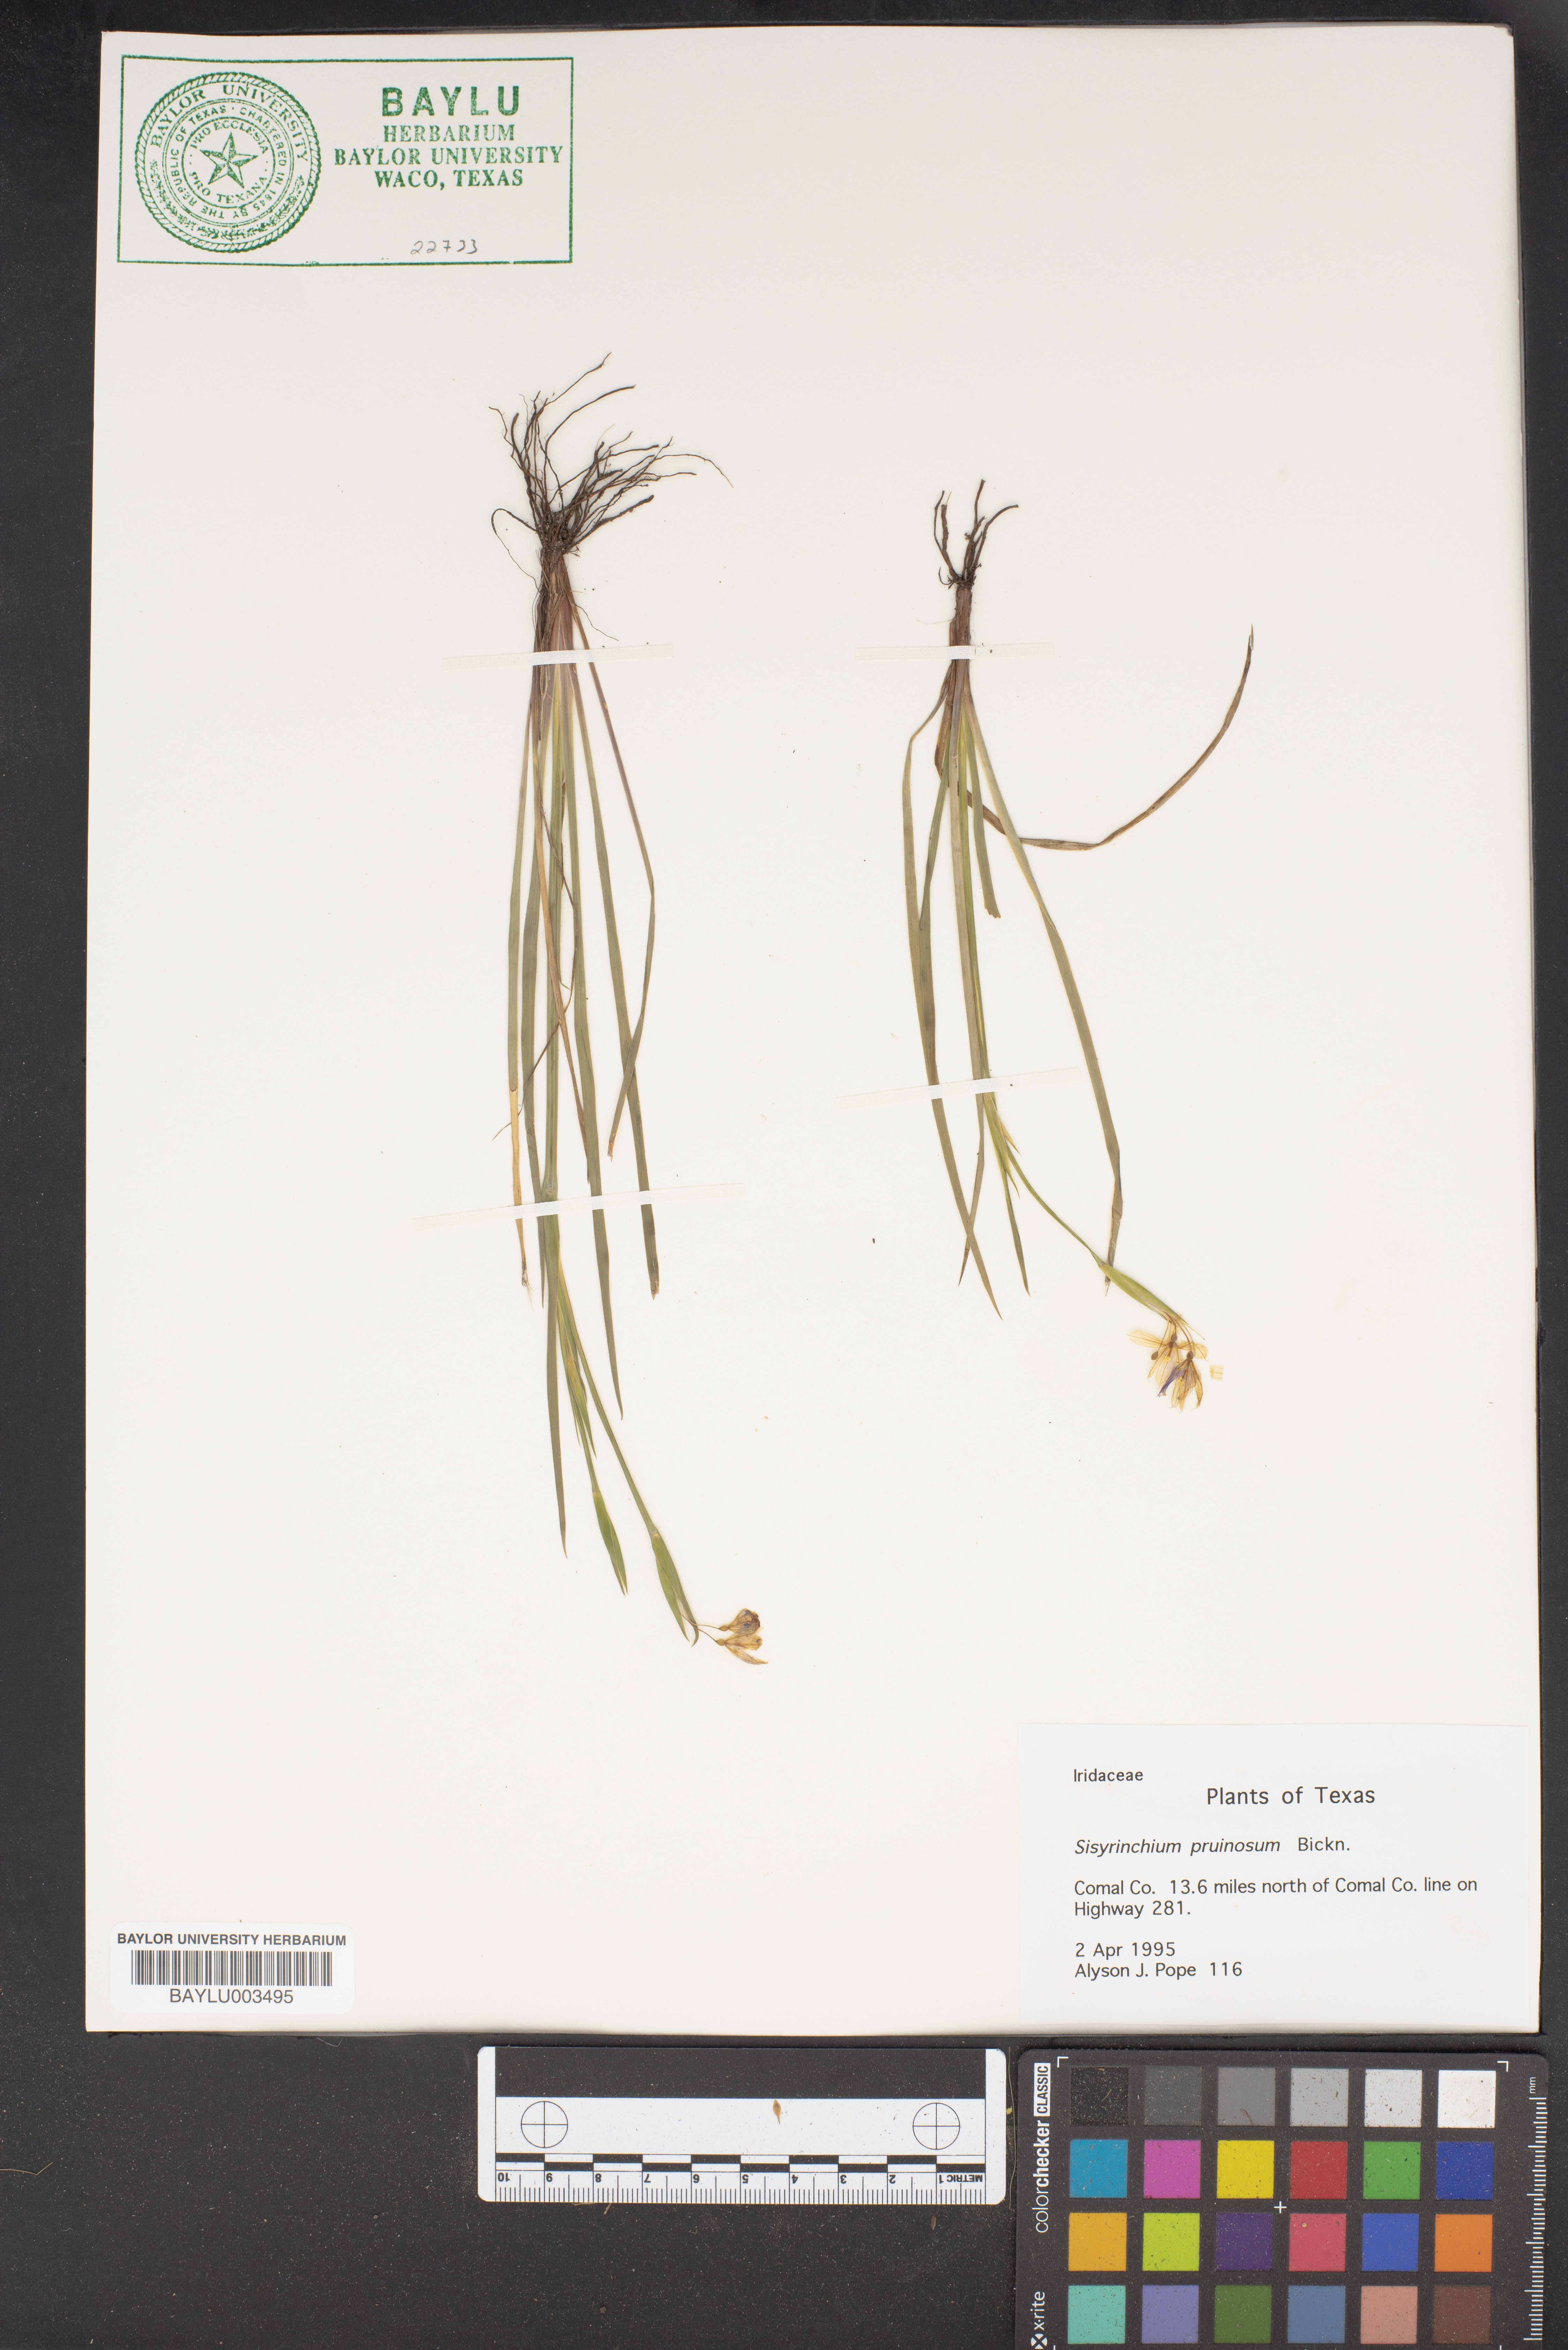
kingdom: Plantae
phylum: Tracheophyta
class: Liliopsida
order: Asparagales
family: Iridaceae
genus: Sisyrinchium
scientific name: Sisyrinchium pruinosum
